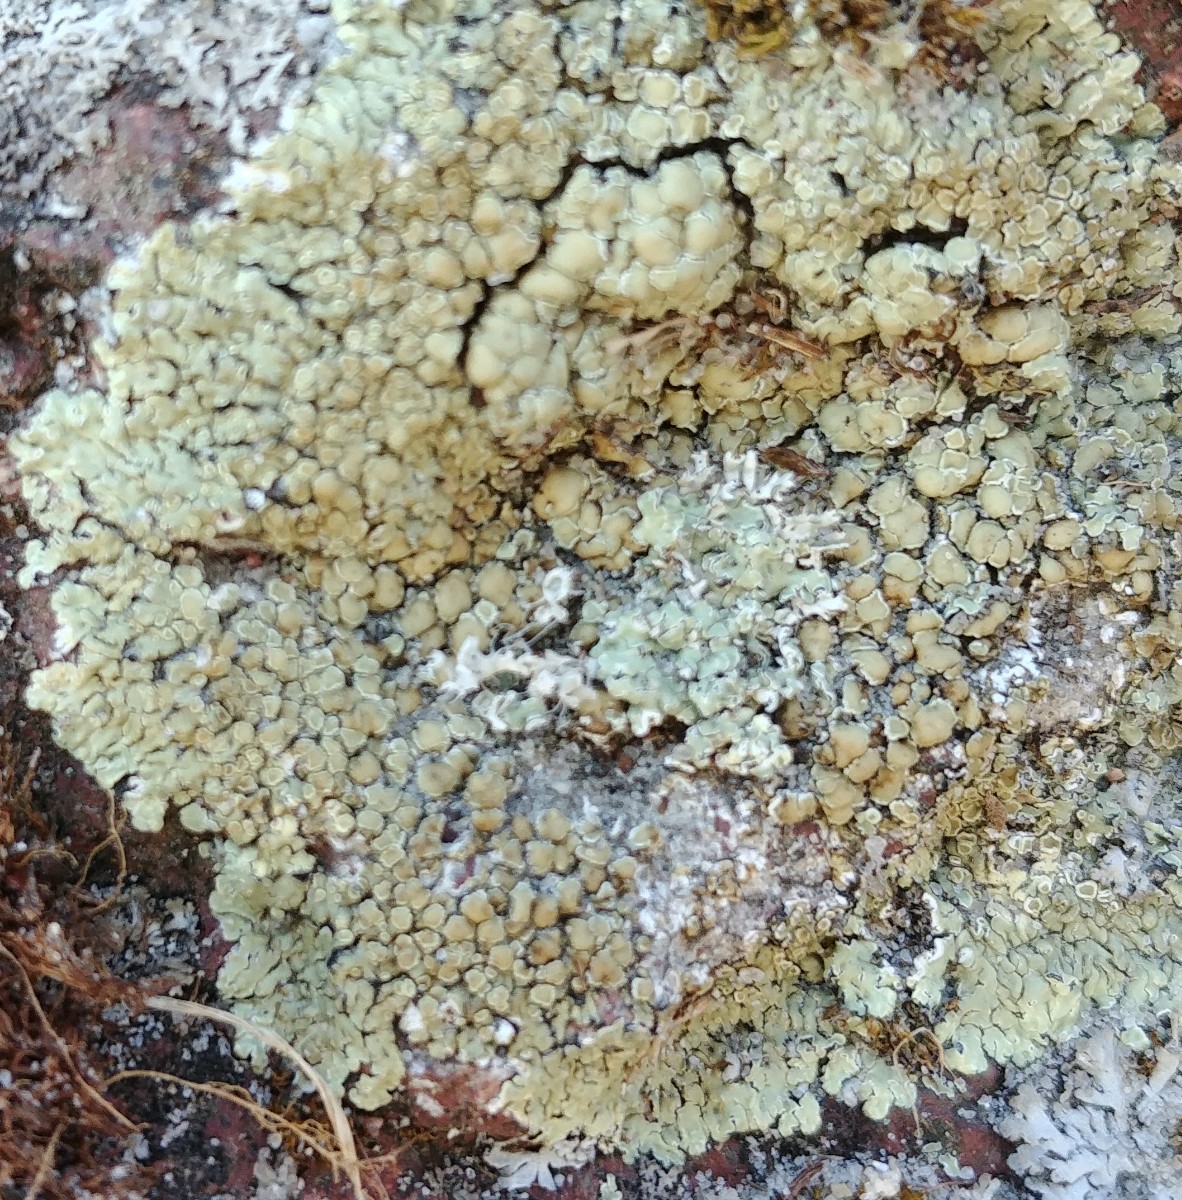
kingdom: Fungi
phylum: Ascomycota
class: Lecanoromycetes
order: Lecanorales
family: Lecanoraceae
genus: Protoparmeliopsis
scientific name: Protoparmeliopsis muralis
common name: randfliget kantskivelav
